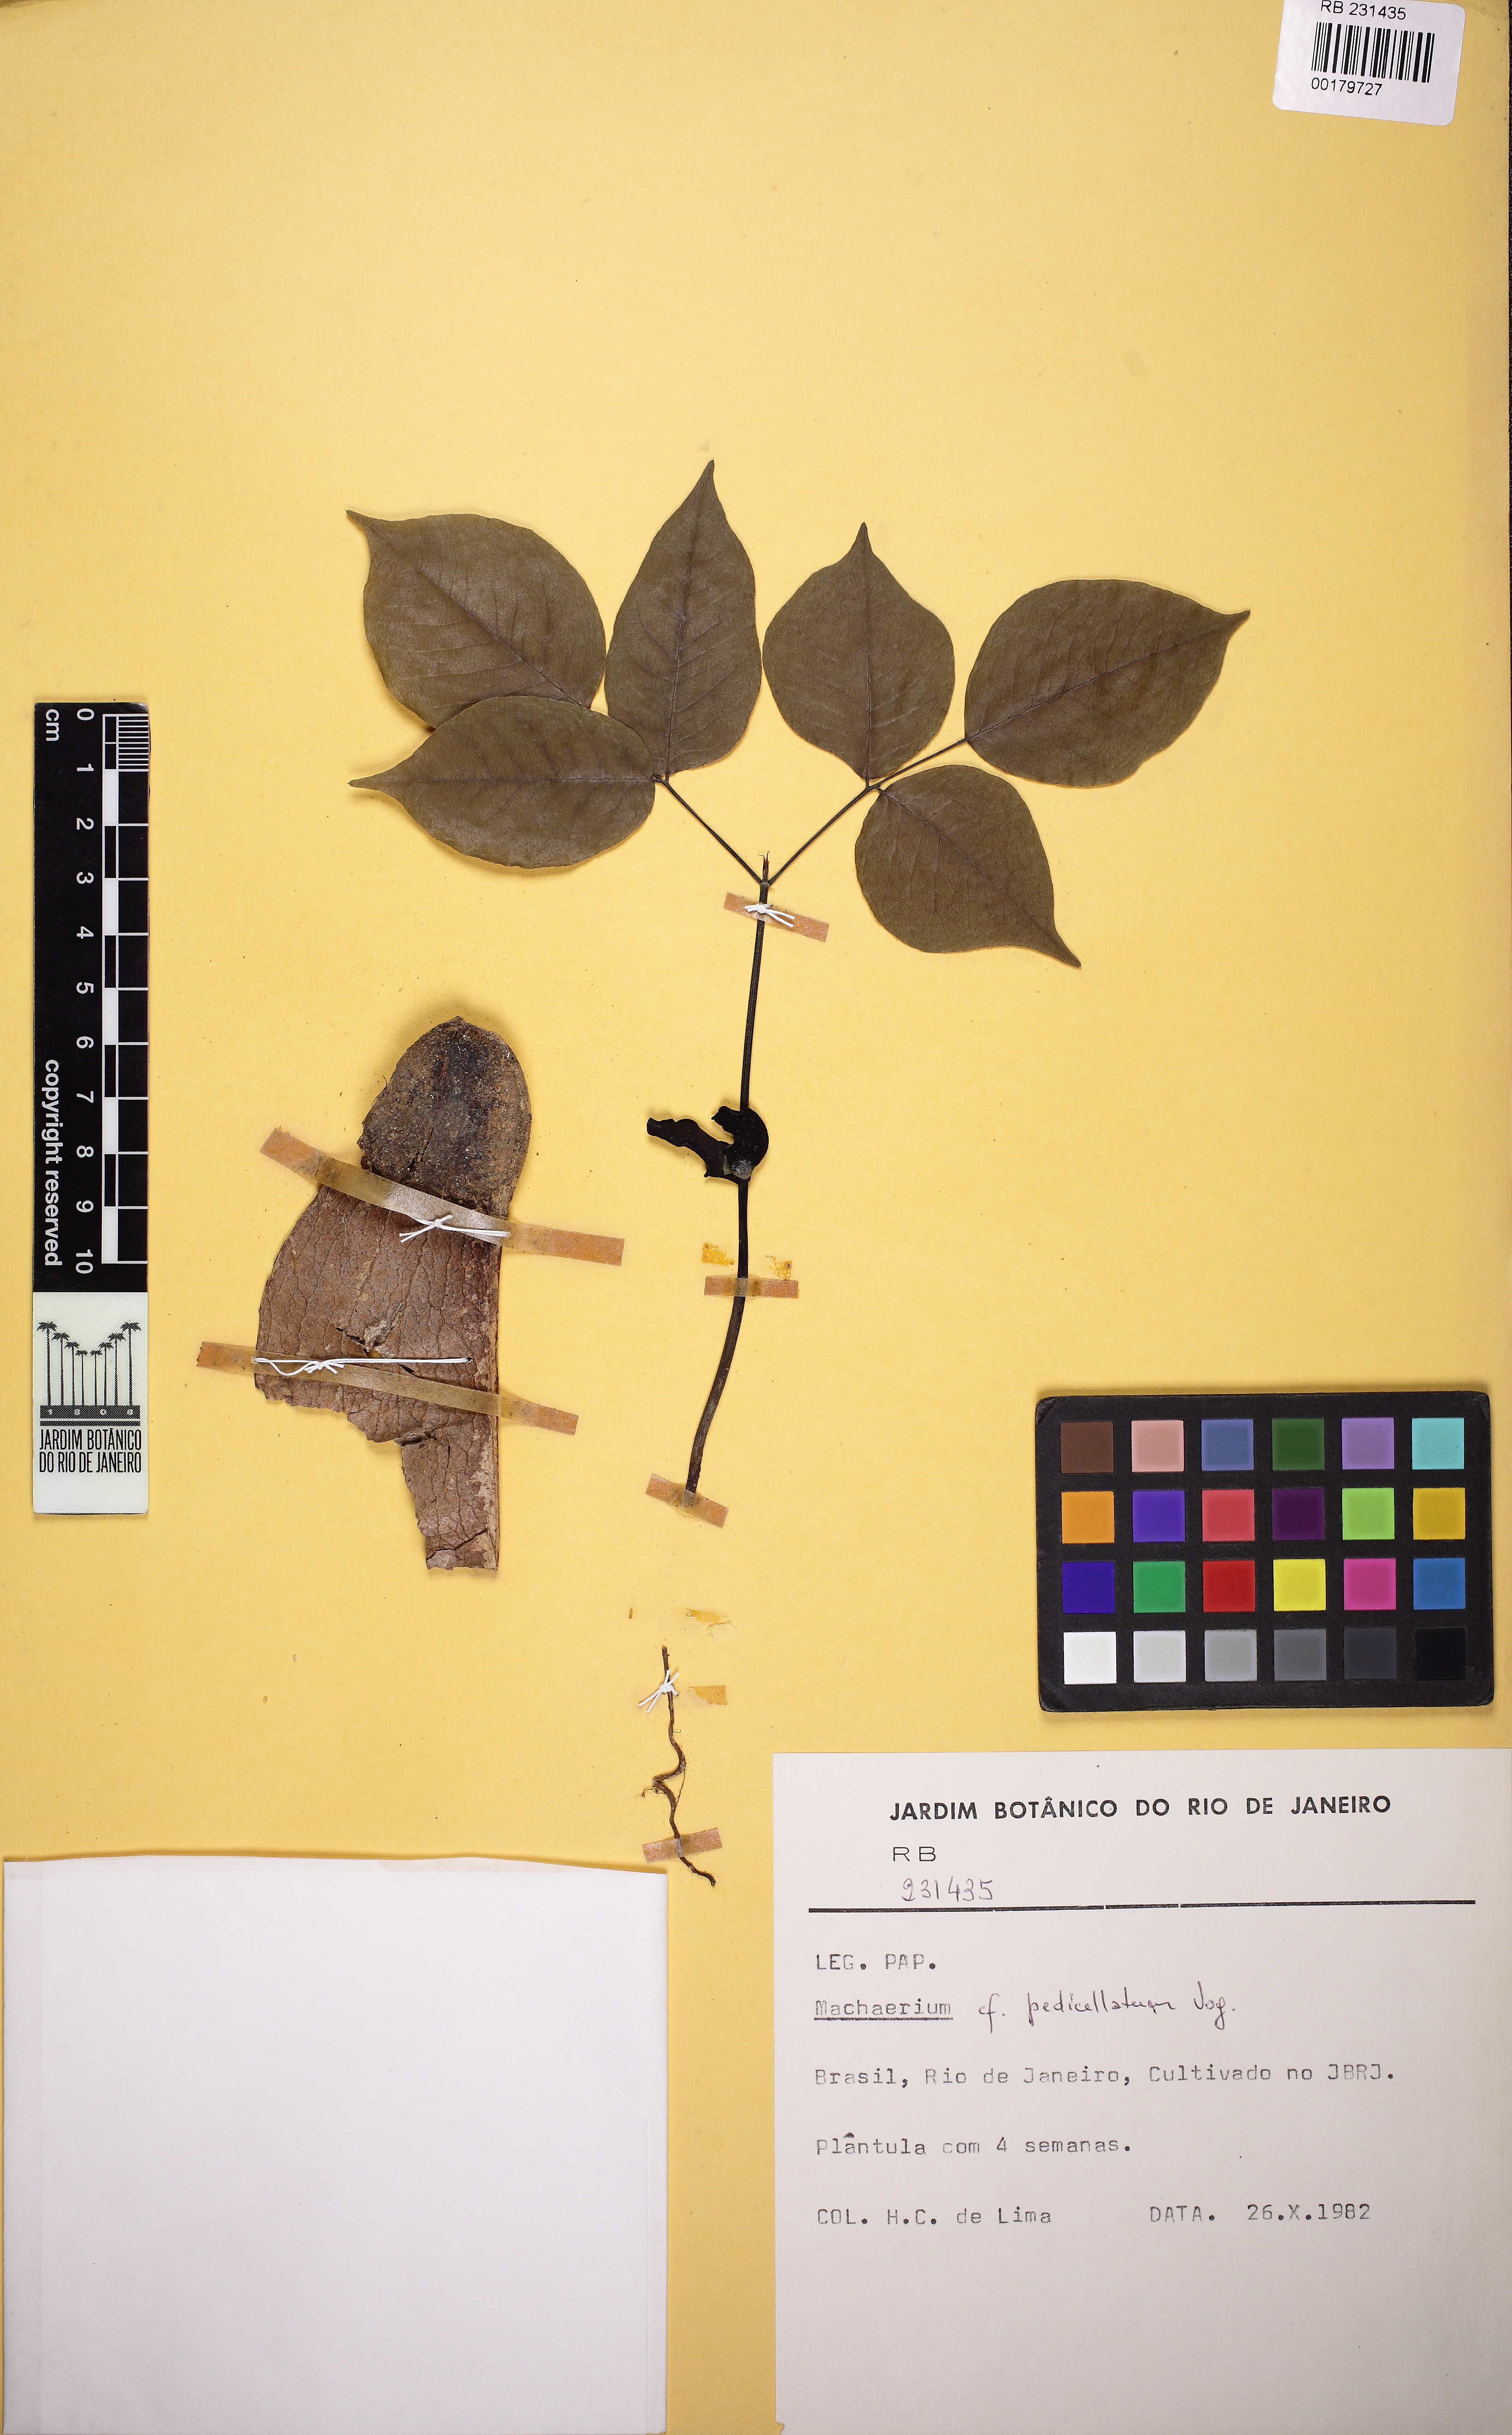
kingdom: Plantae
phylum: Tracheophyta
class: Magnoliopsida
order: Fabales
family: Fabaceae
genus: Machaerium
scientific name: Machaerium pedicellatum
